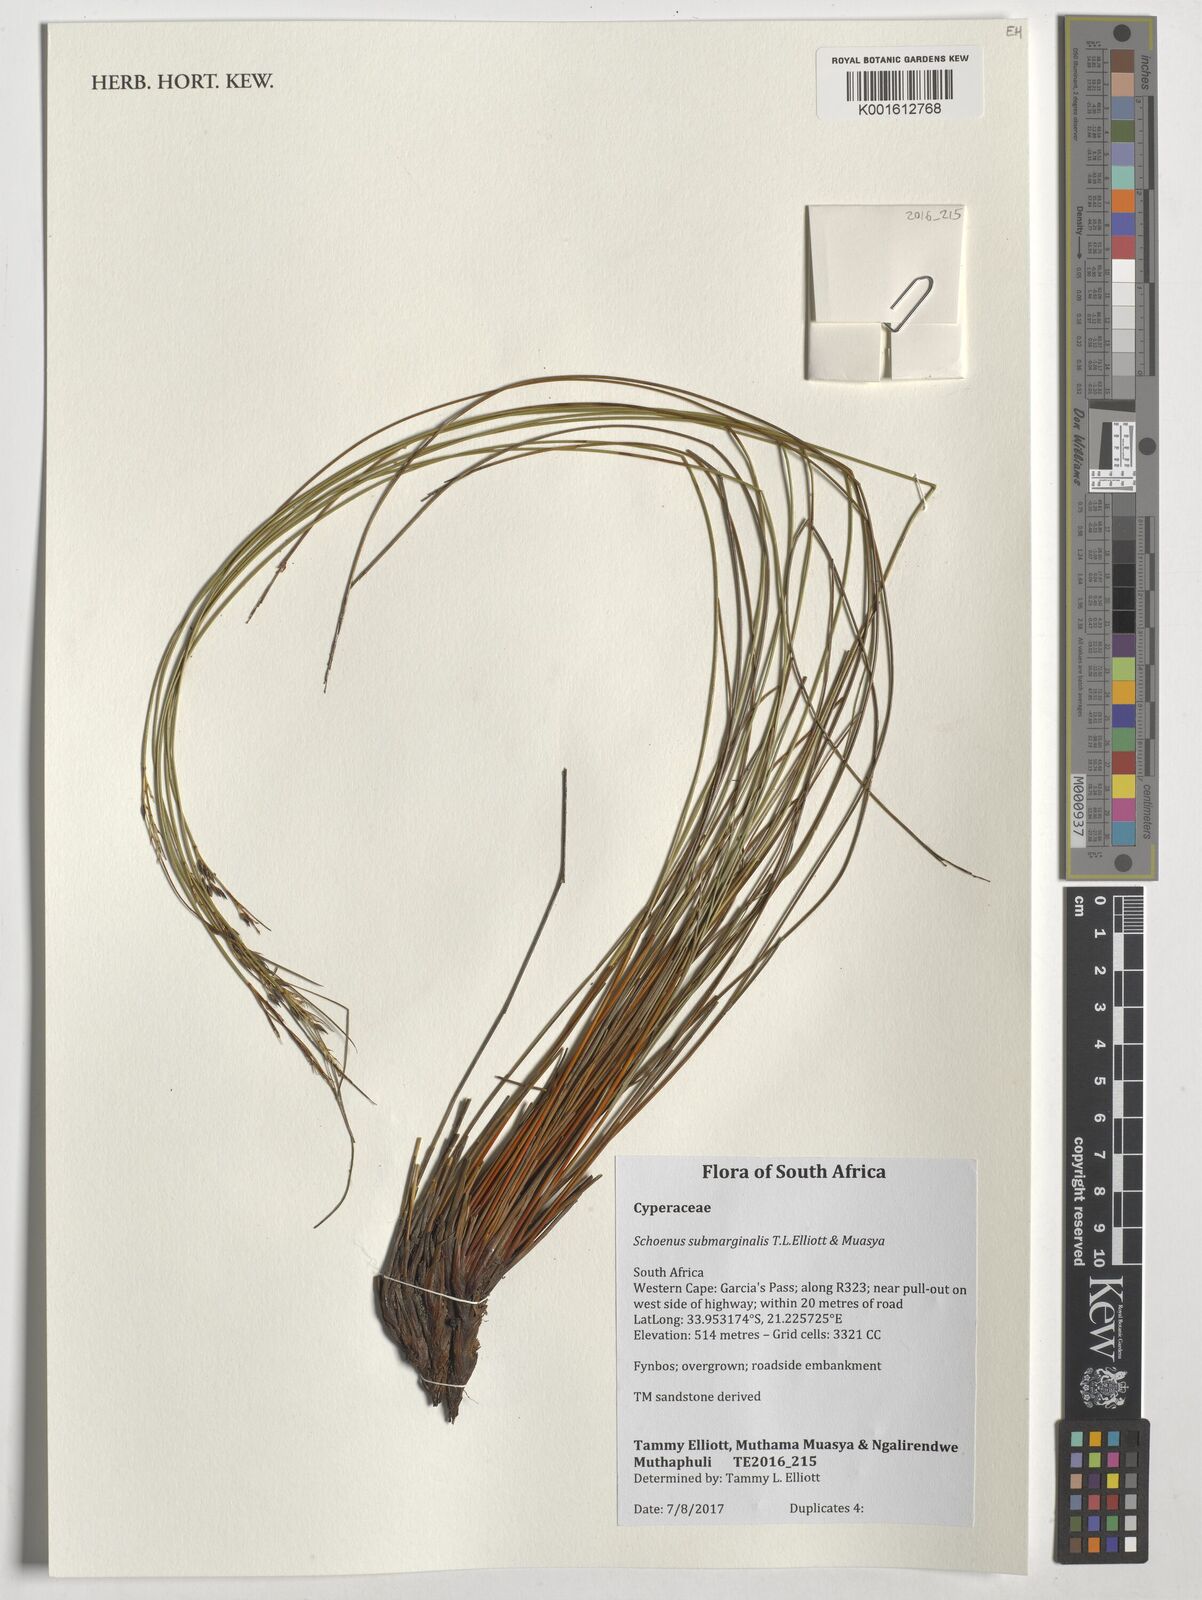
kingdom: Plantae
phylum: Tracheophyta
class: Liliopsida
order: Poales
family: Cyperaceae
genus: Schoenus
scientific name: Schoenus submarginalis
